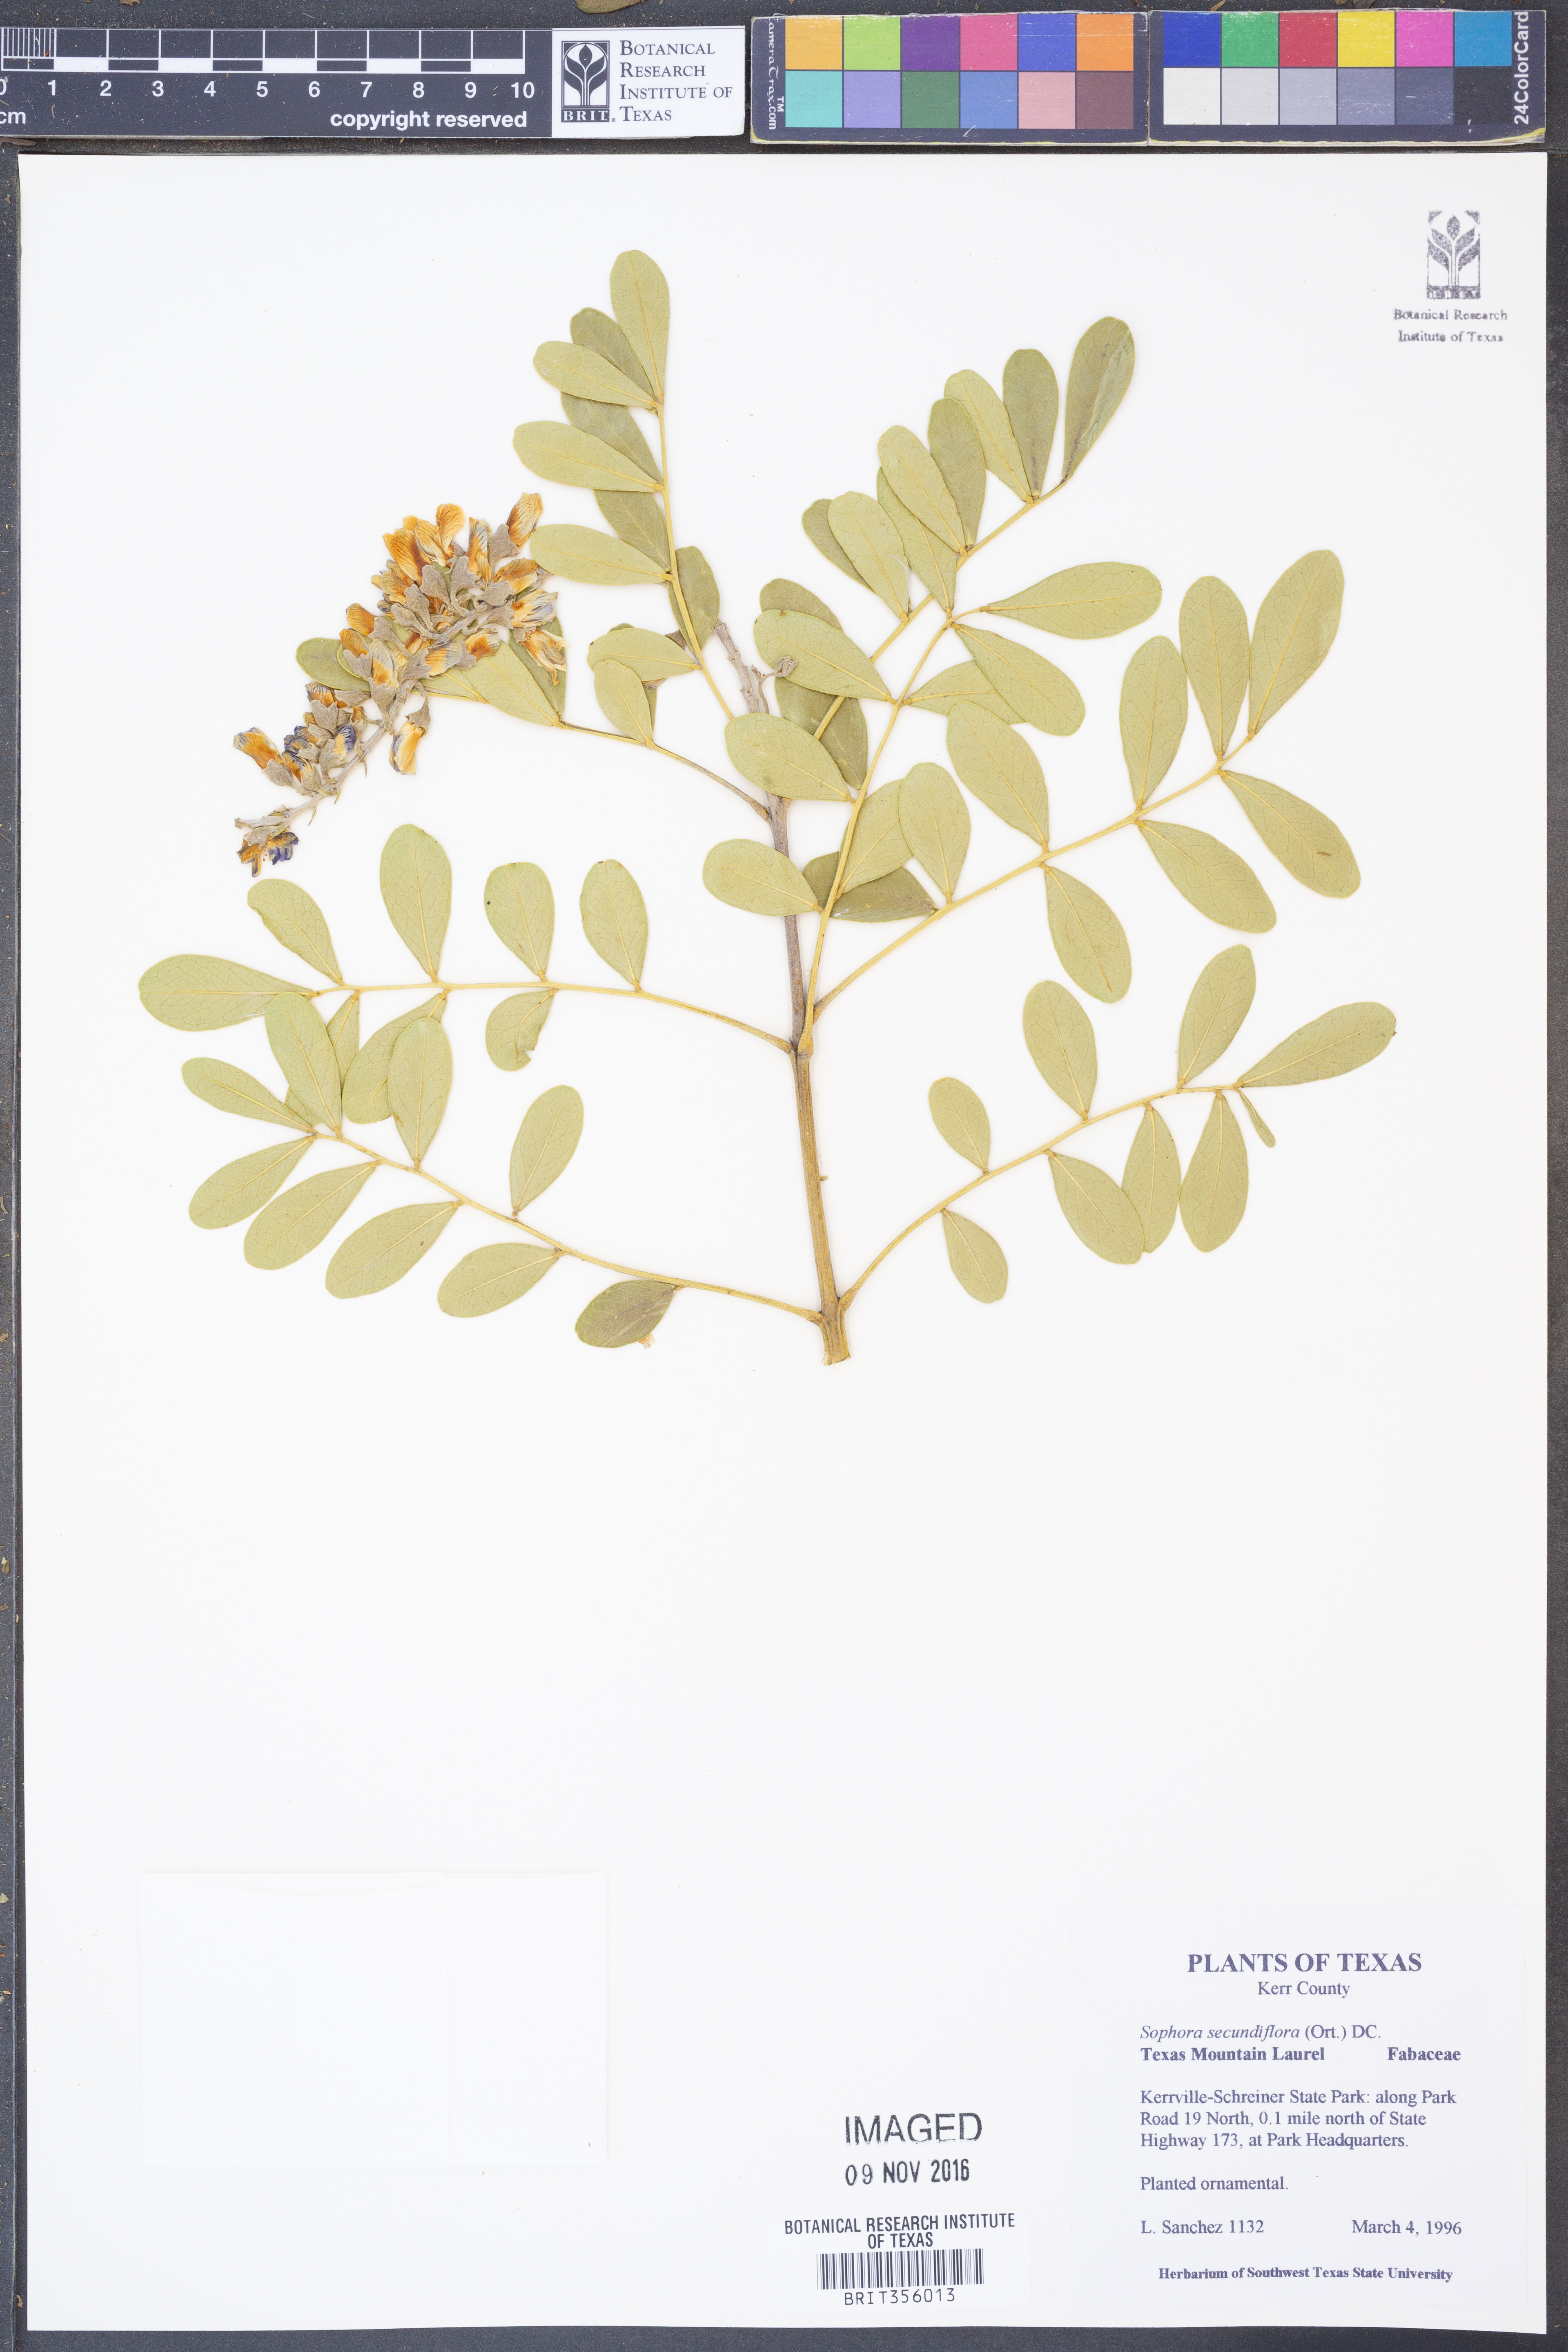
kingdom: Plantae
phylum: Tracheophyta
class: Magnoliopsida
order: Fabales
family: Fabaceae
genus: Dermatophyllum
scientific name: Dermatophyllum secundiflorum
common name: Texas-mountain-laurel
